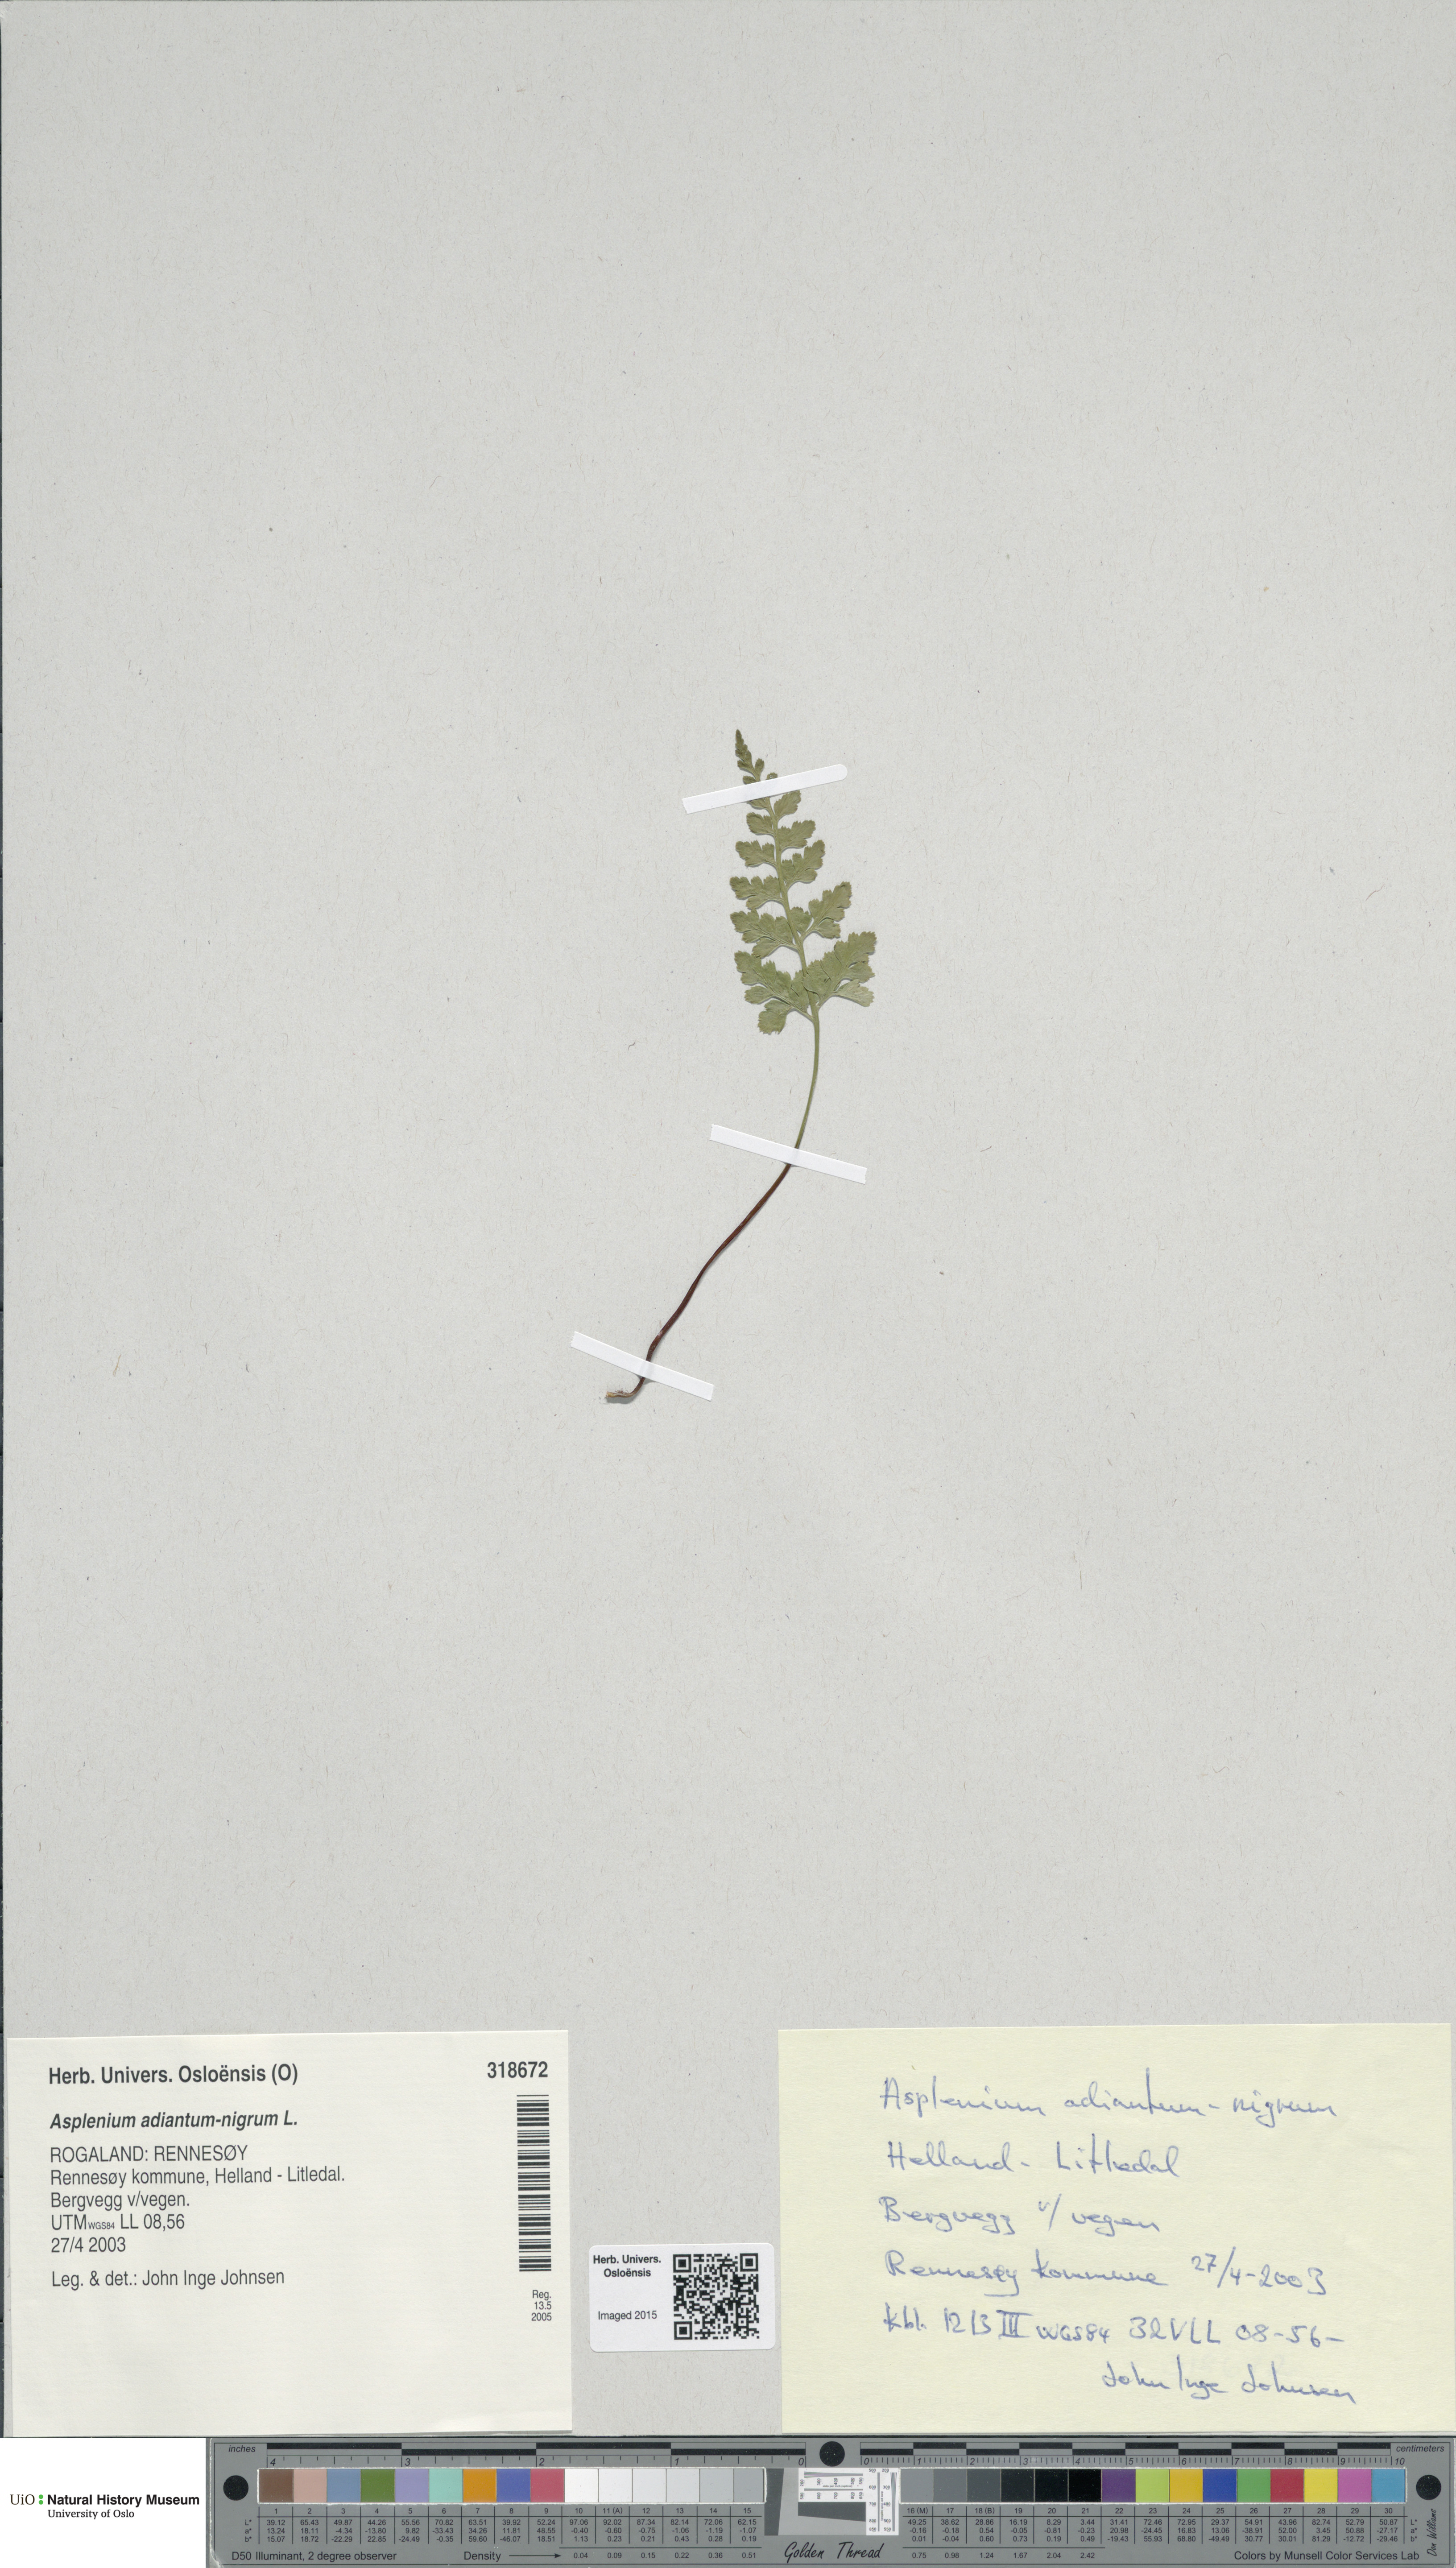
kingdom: Plantae
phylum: Tracheophyta
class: Polypodiopsida
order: Polypodiales
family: Aspleniaceae
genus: Asplenium
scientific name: Asplenium adiantum-nigrum
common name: Black spleenwort
